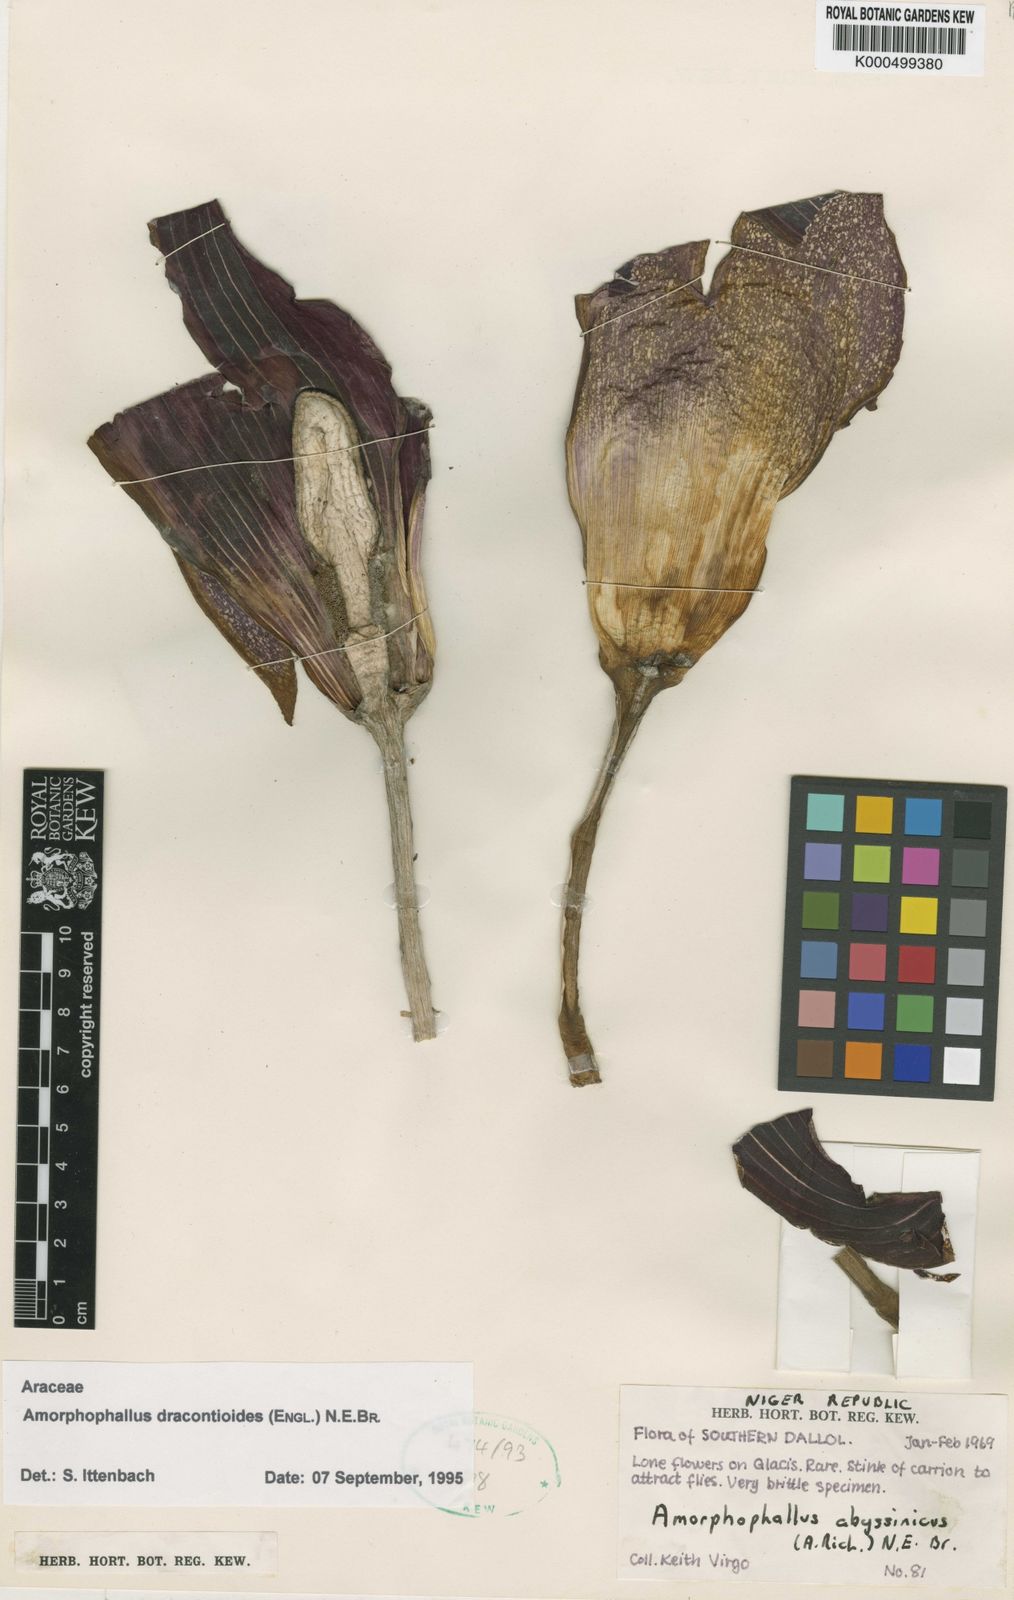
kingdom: Plantae
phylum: Tracheophyta
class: Liliopsida
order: Alismatales
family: Araceae
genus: Amorphophallus
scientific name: Amorphophallus dracontioides
